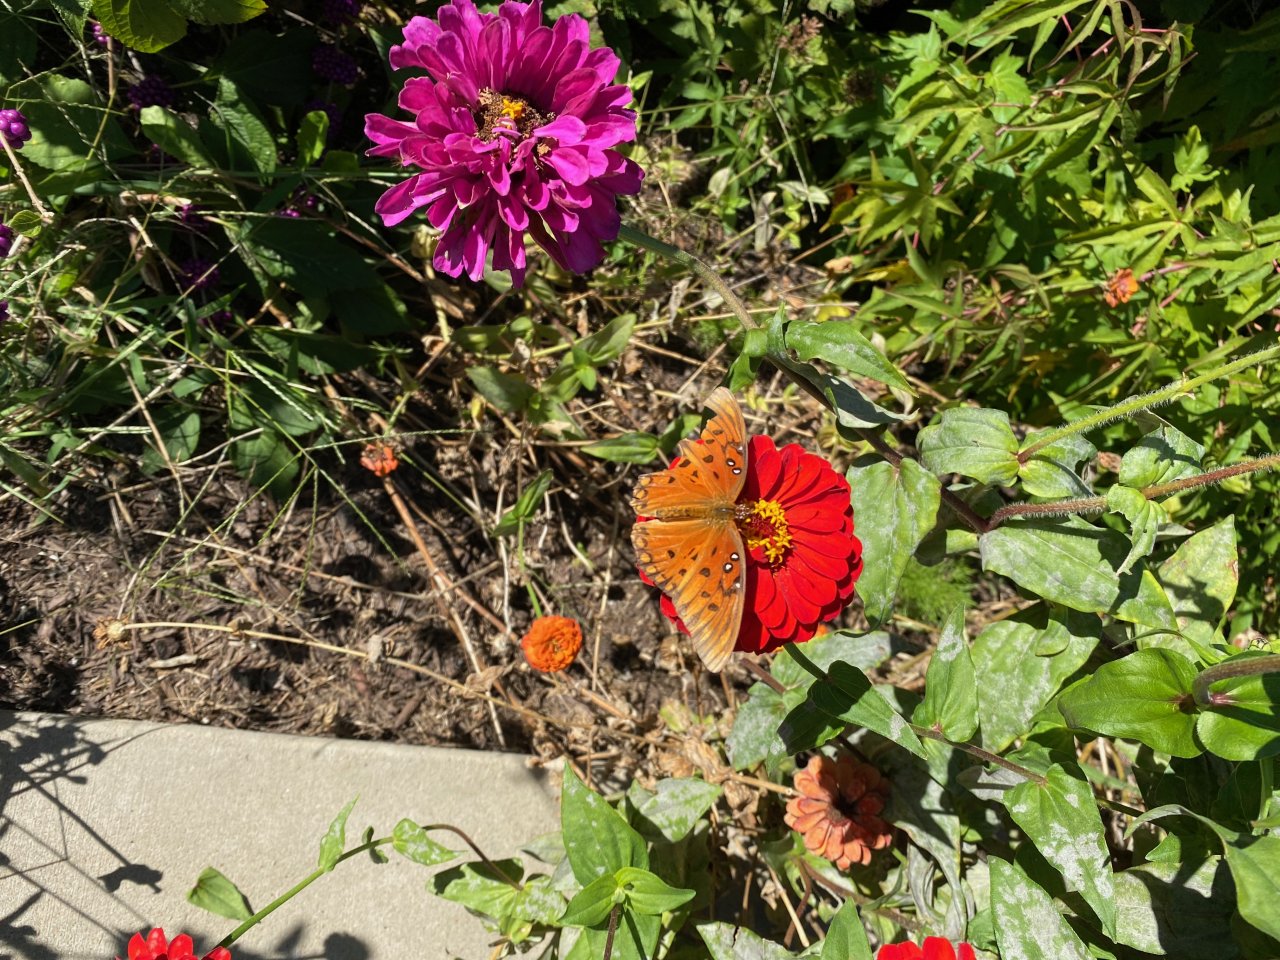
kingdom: Animalia
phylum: Arthropoda
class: Insecta
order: Lepidoptera
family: Nymphalidae
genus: Dione
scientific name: Dione vanillae
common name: Gulf Fritillary
